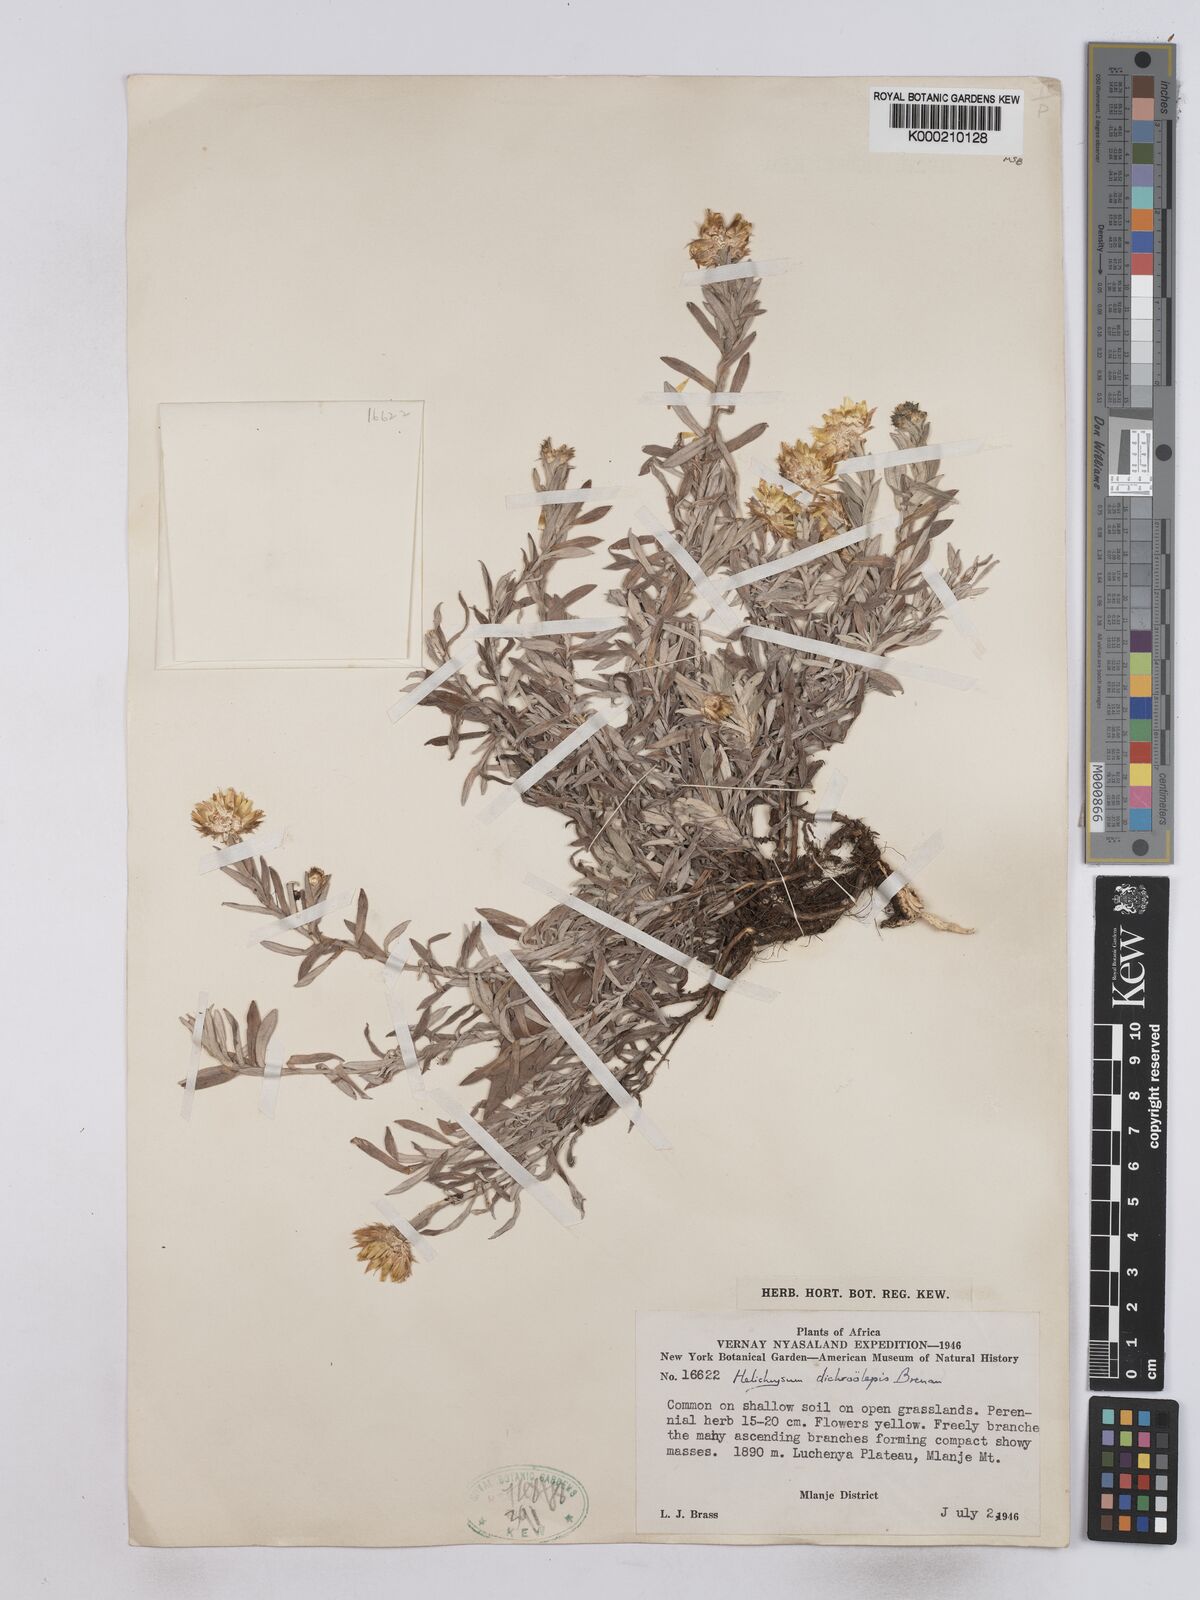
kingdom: Plantae
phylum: Tracheophyta
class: Magnoliopsida
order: Asterales
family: Asteraceae
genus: Helichrysum
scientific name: Helichrysum
